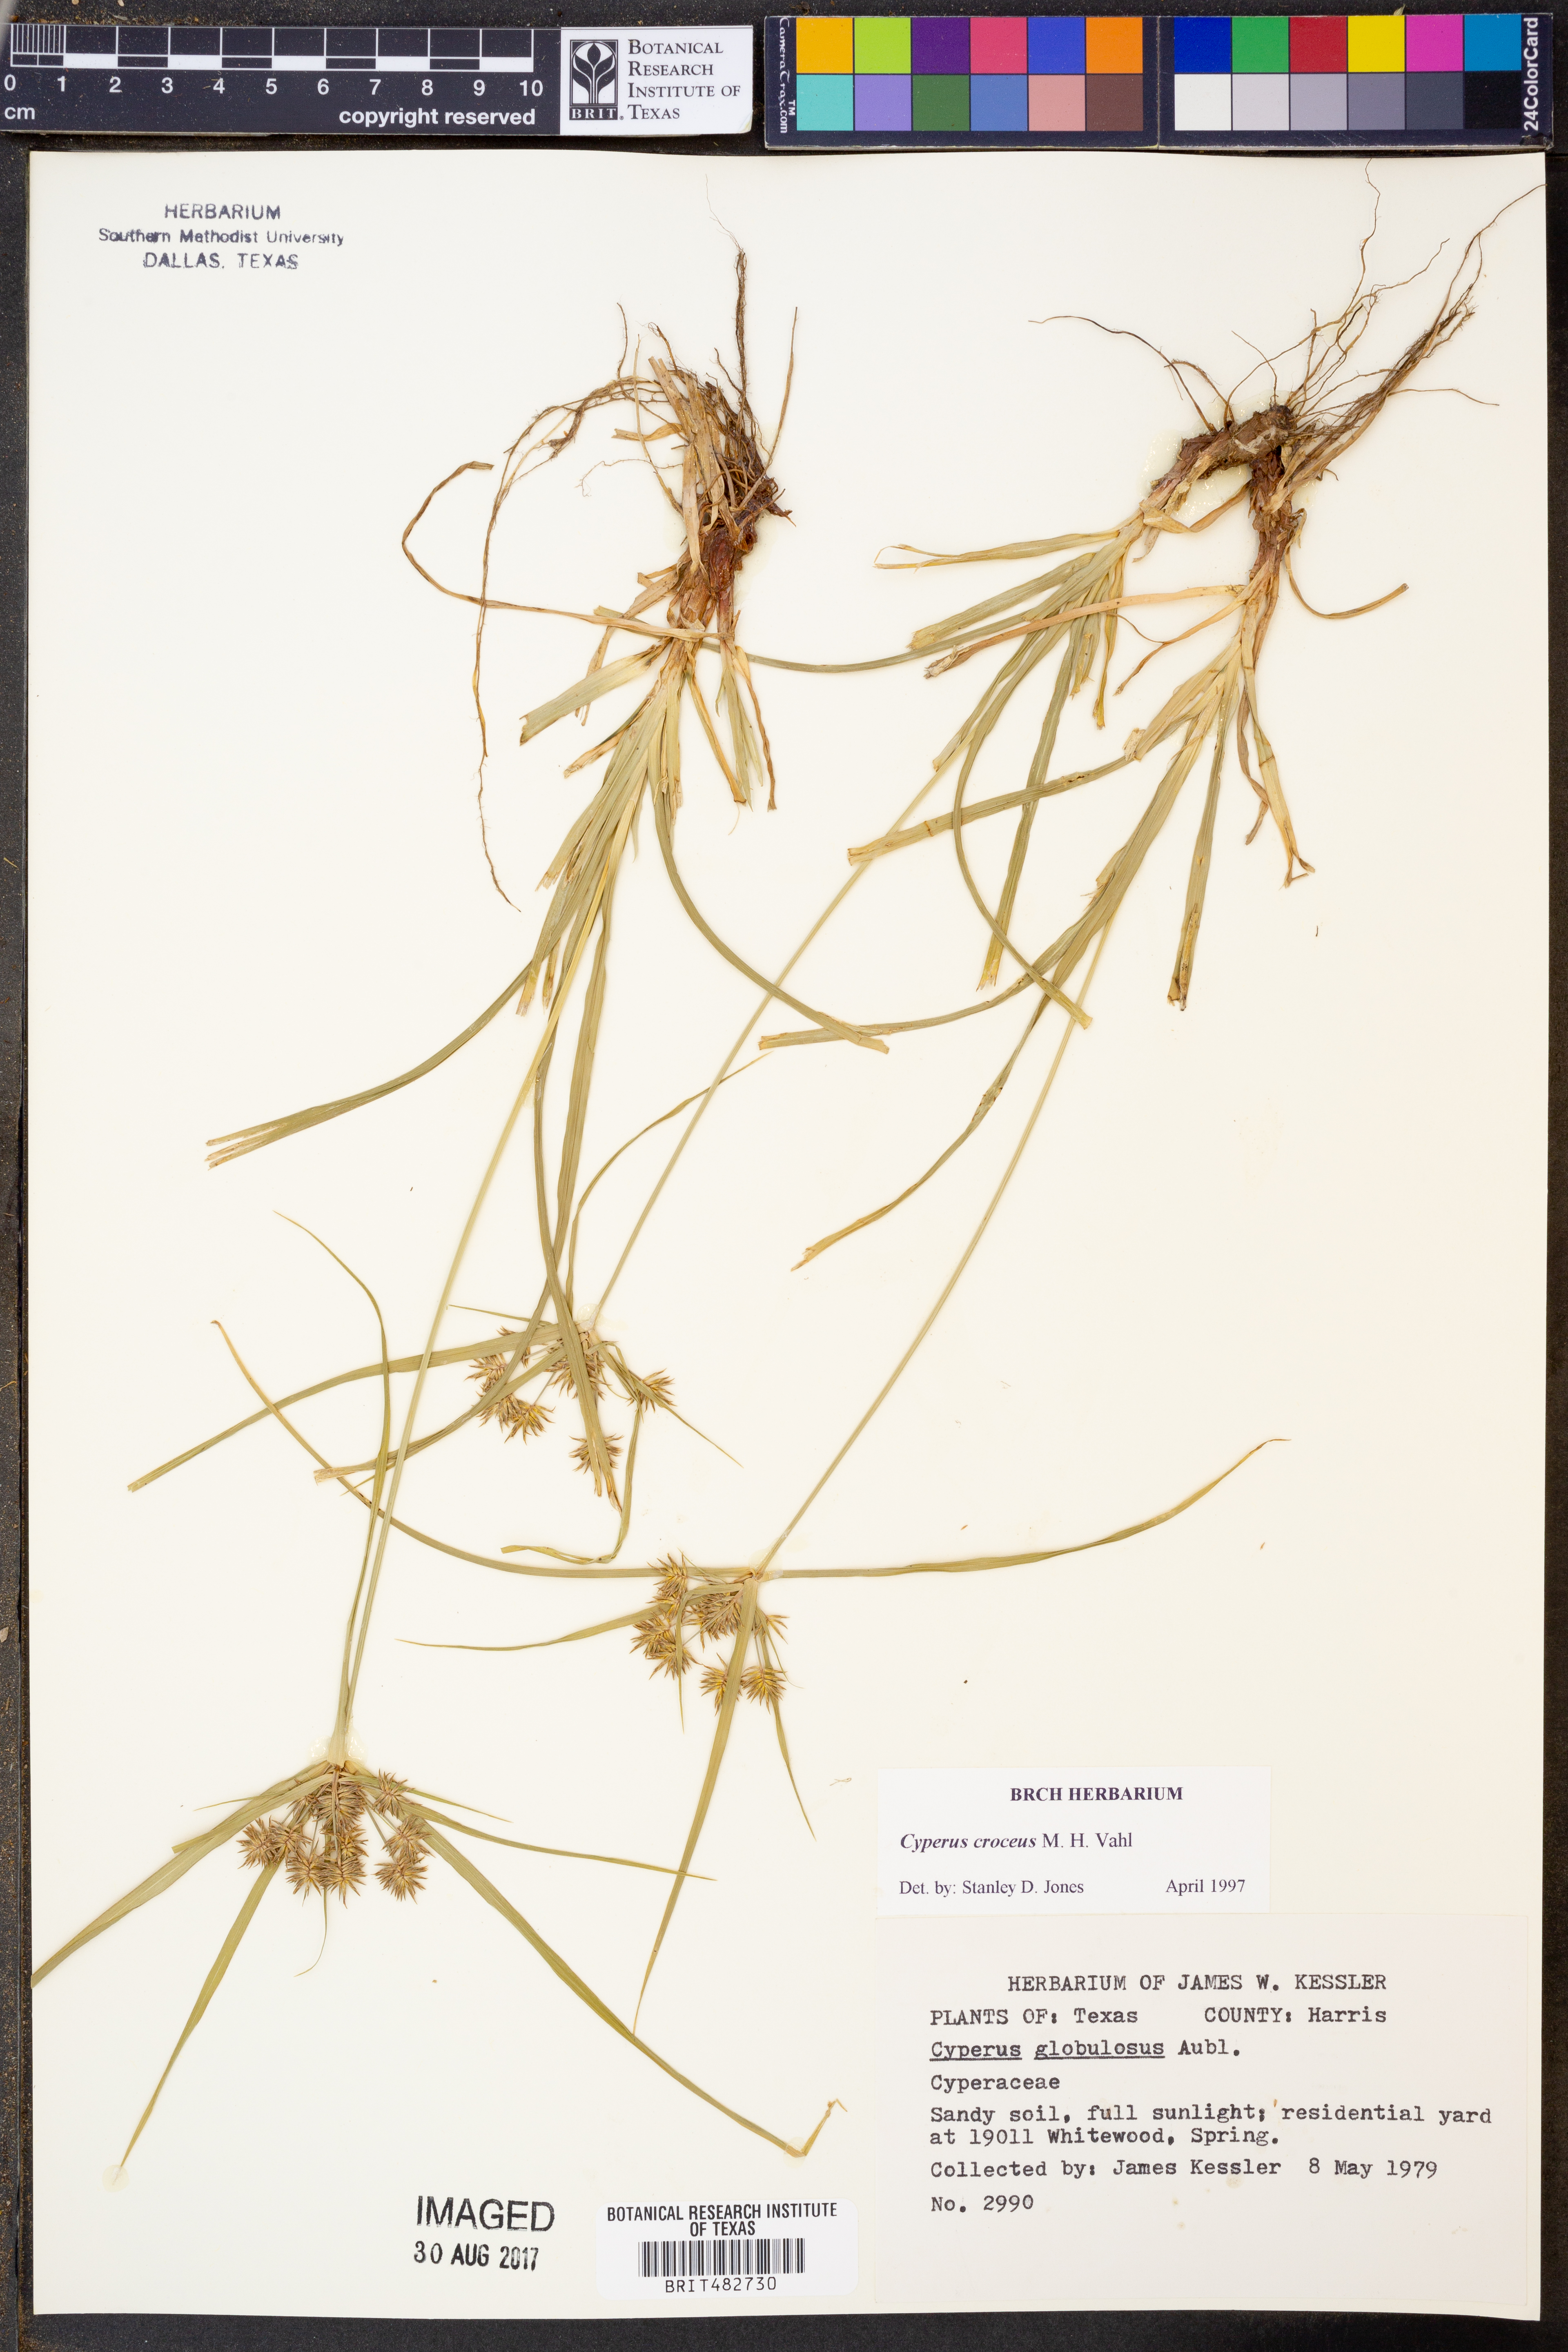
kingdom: Plantae
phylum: Tracheophyta
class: Liliopsida
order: Poales
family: Cyperaceae
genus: Cyperus
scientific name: Cyperus croceus
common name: Baldwin's flatsedge
